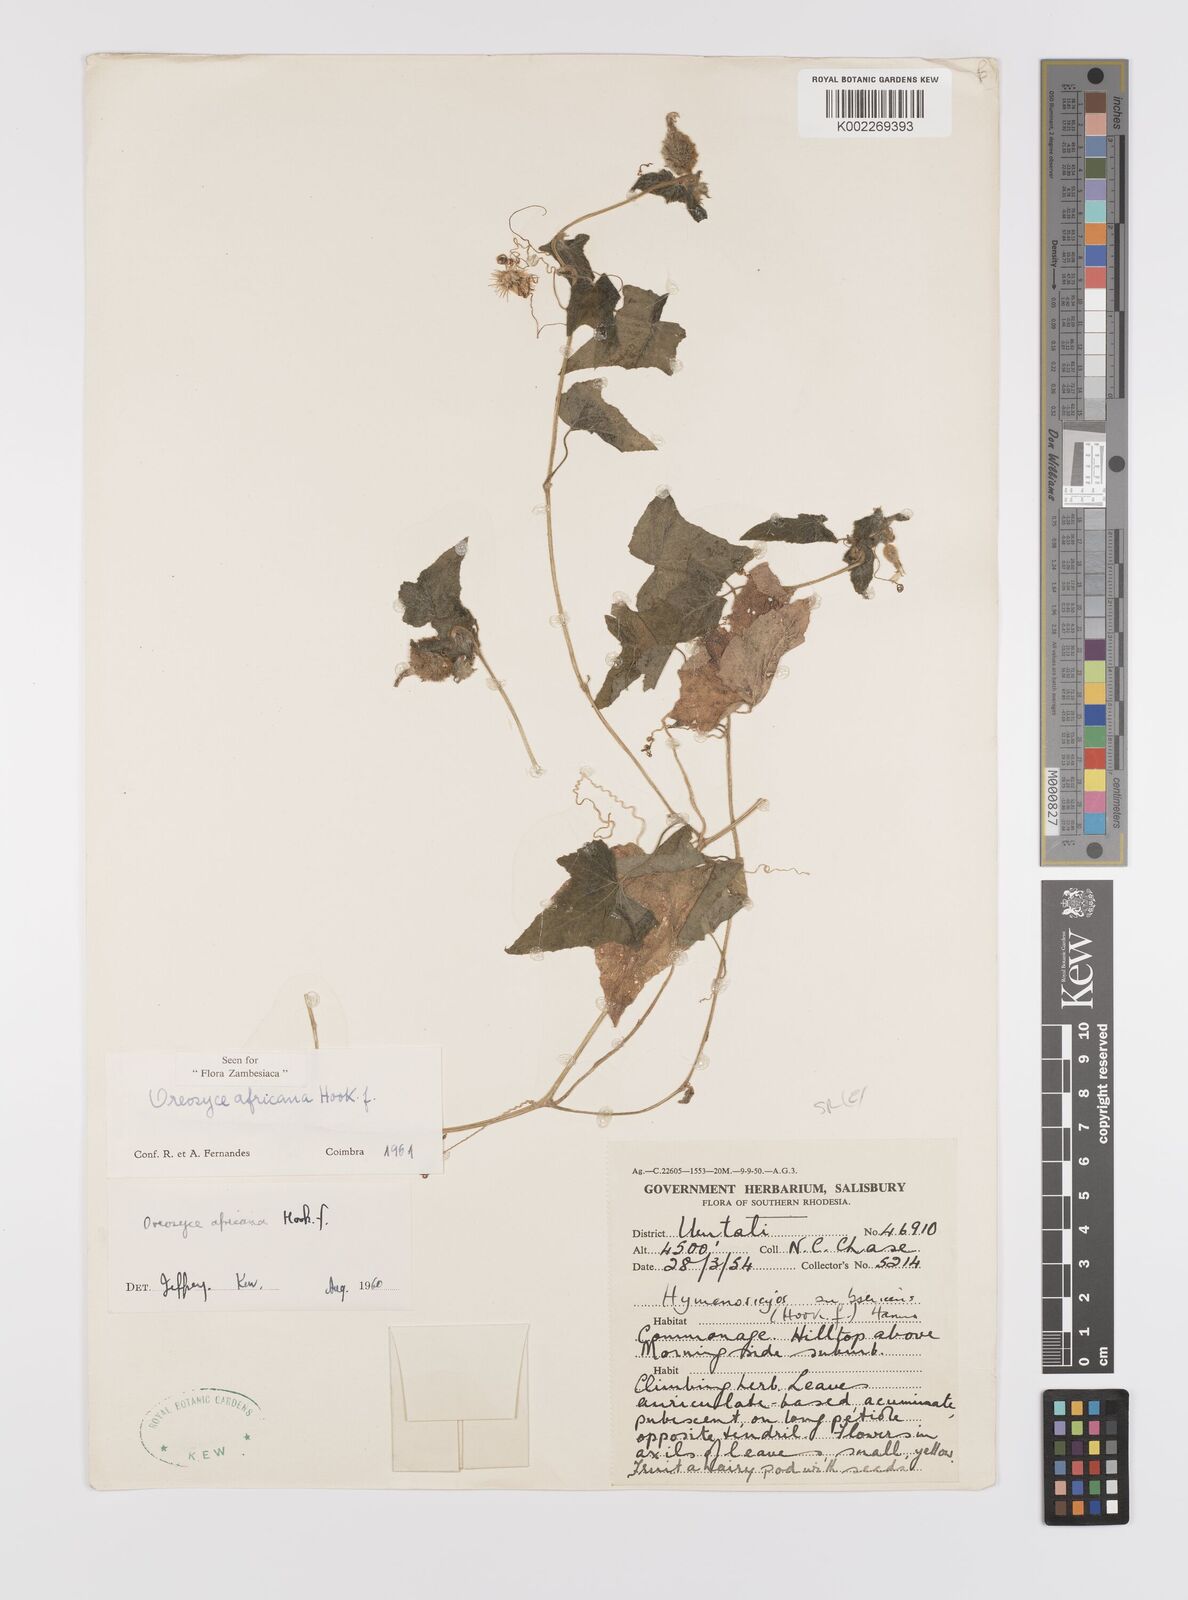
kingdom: Plantae
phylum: Tracheophyta
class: Magnoliopsida
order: Cucurbitales
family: Cucurbitaceae
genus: Cucumis
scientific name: Cucumis oreosyce
